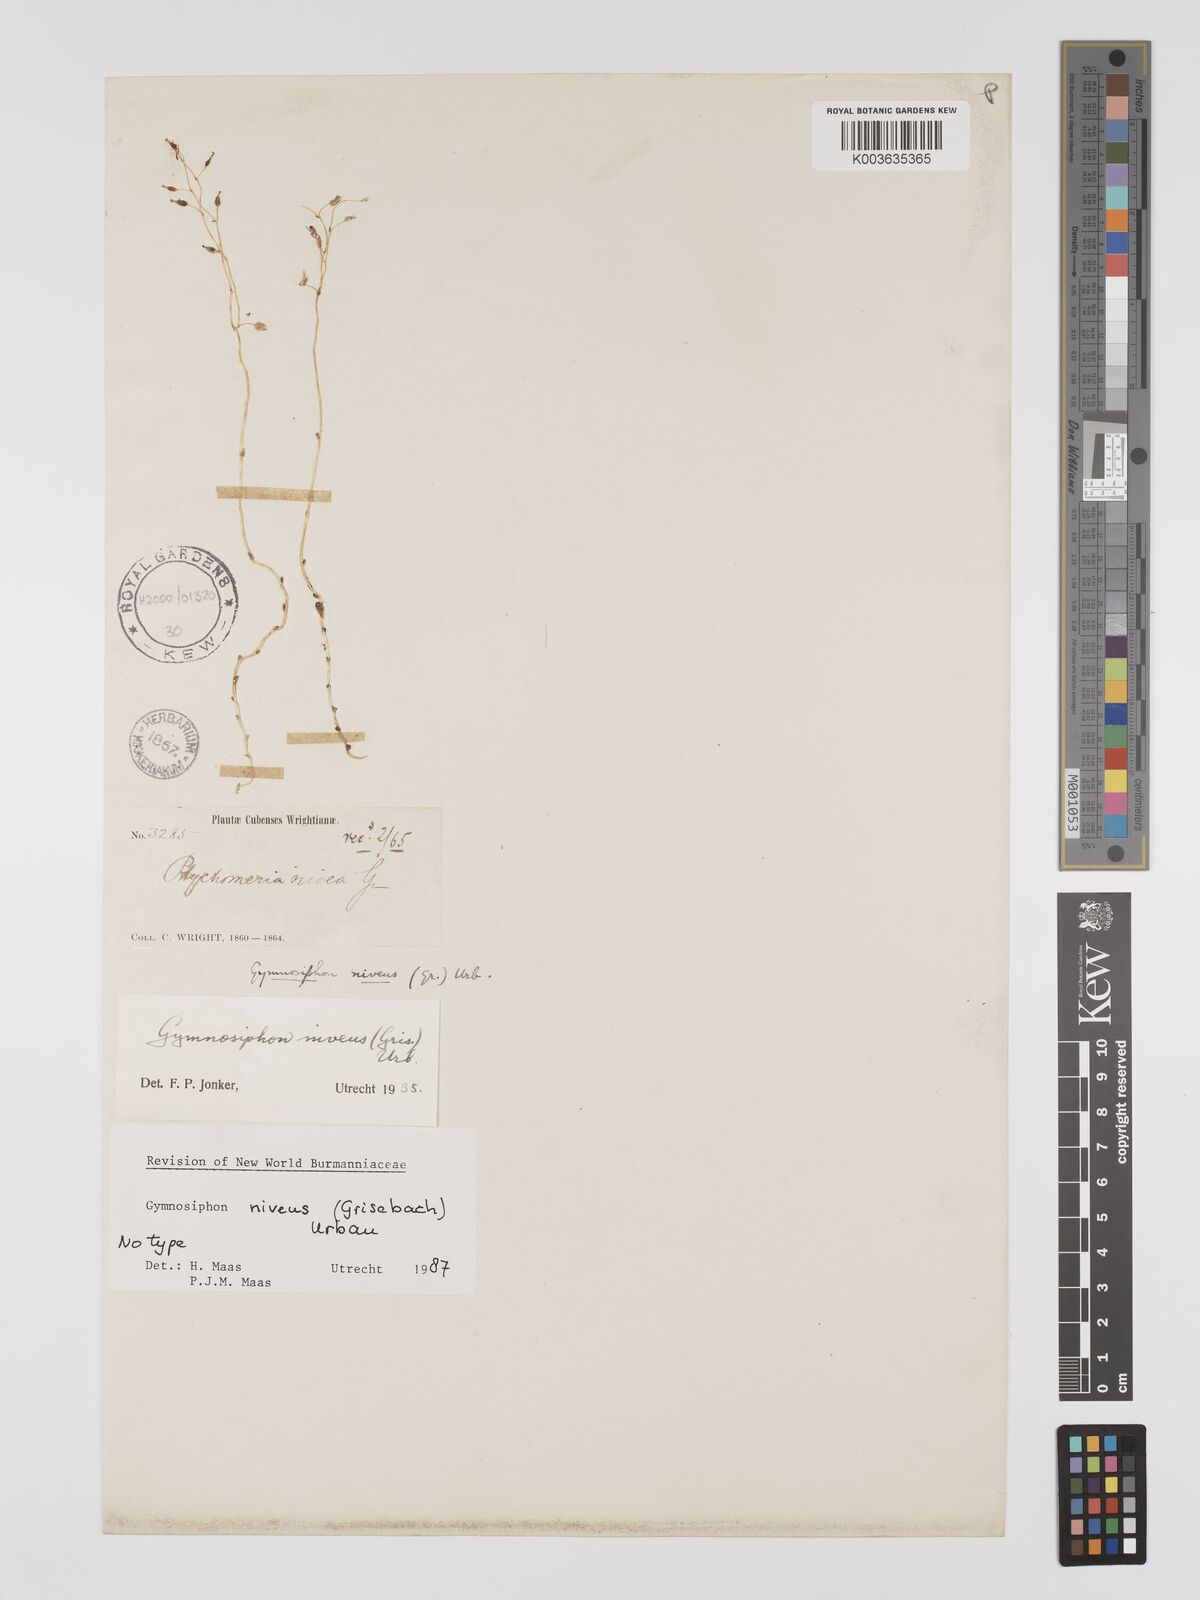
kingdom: Plantae
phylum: Tracheophyta
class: Liliopsida
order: Dioscoreales
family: Burmanniaceae
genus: Gymnosiphon
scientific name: Gymnosiphon niveus
